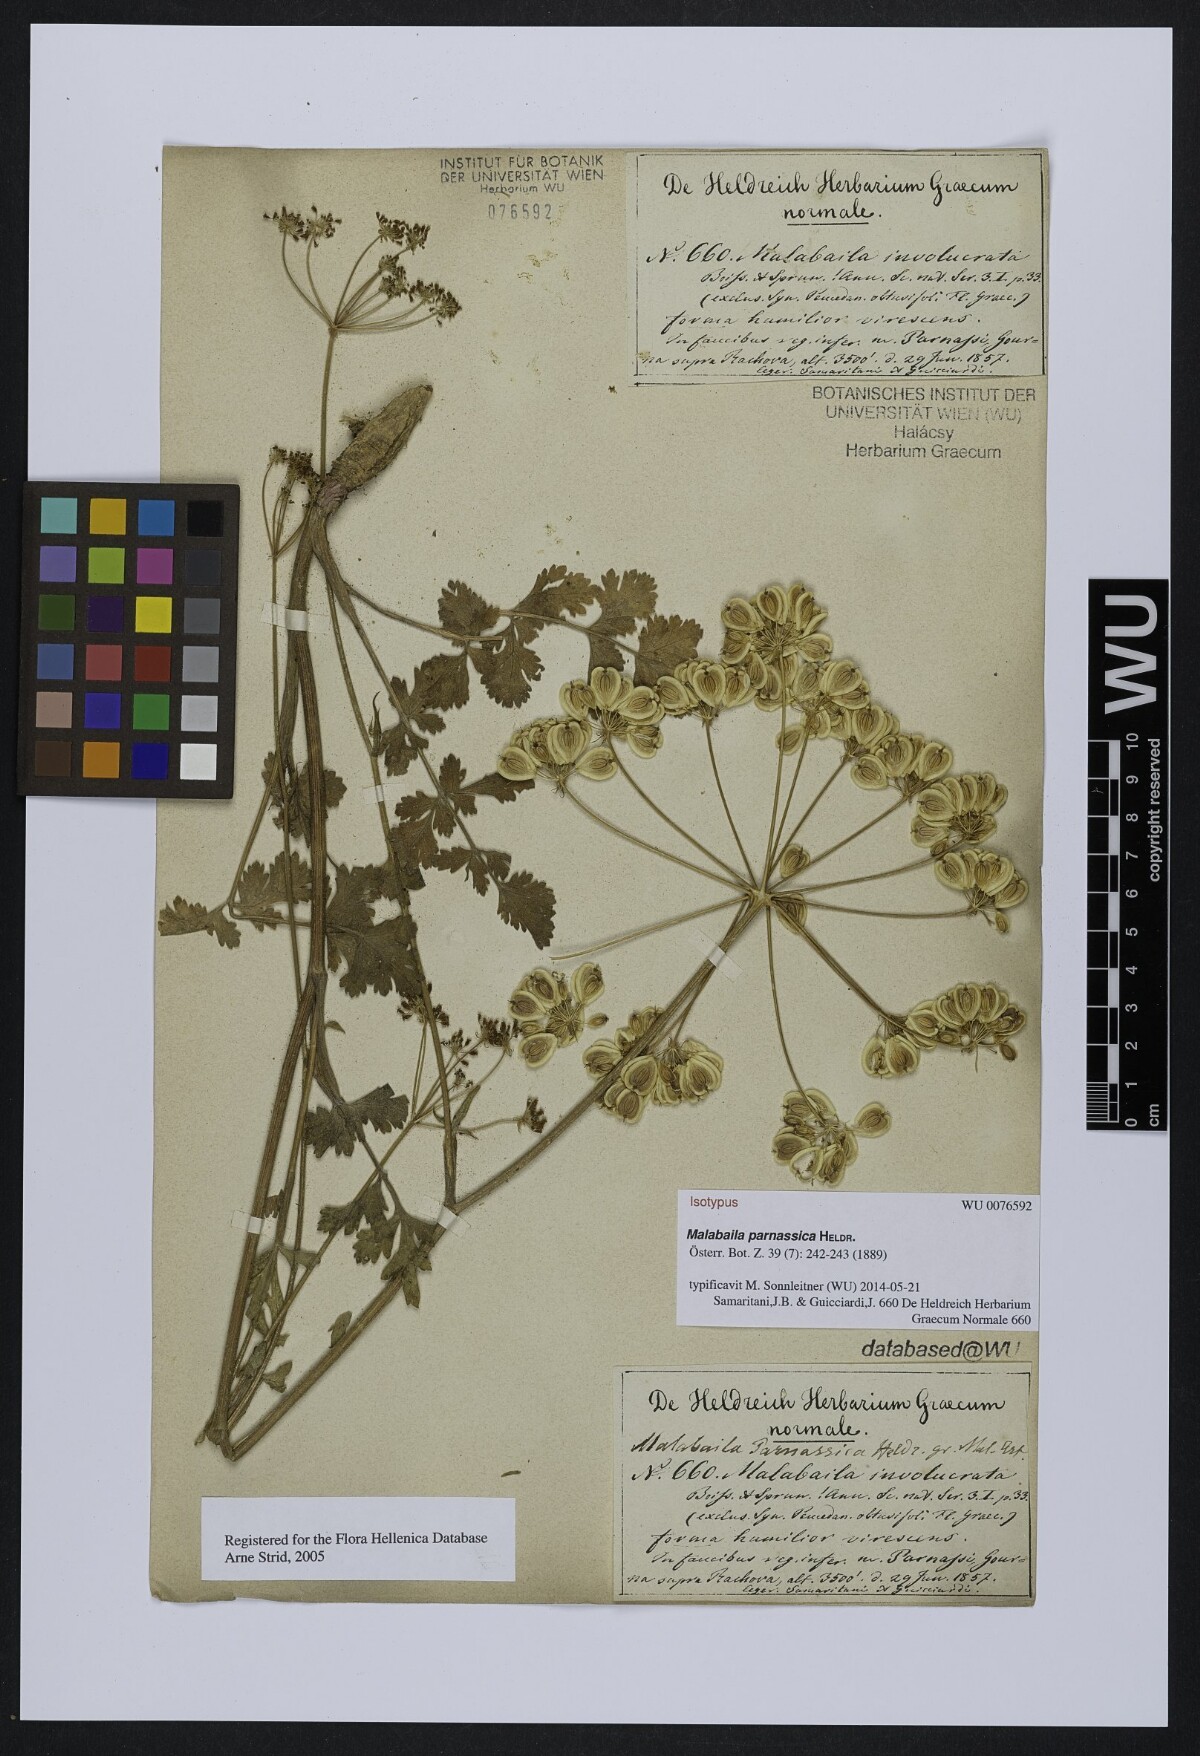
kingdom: Plantae
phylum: Tracheophyta
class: Magnoliopsida
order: Apiales
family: Apiaceae
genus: Leiotulus
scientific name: Leiotulus aureus
